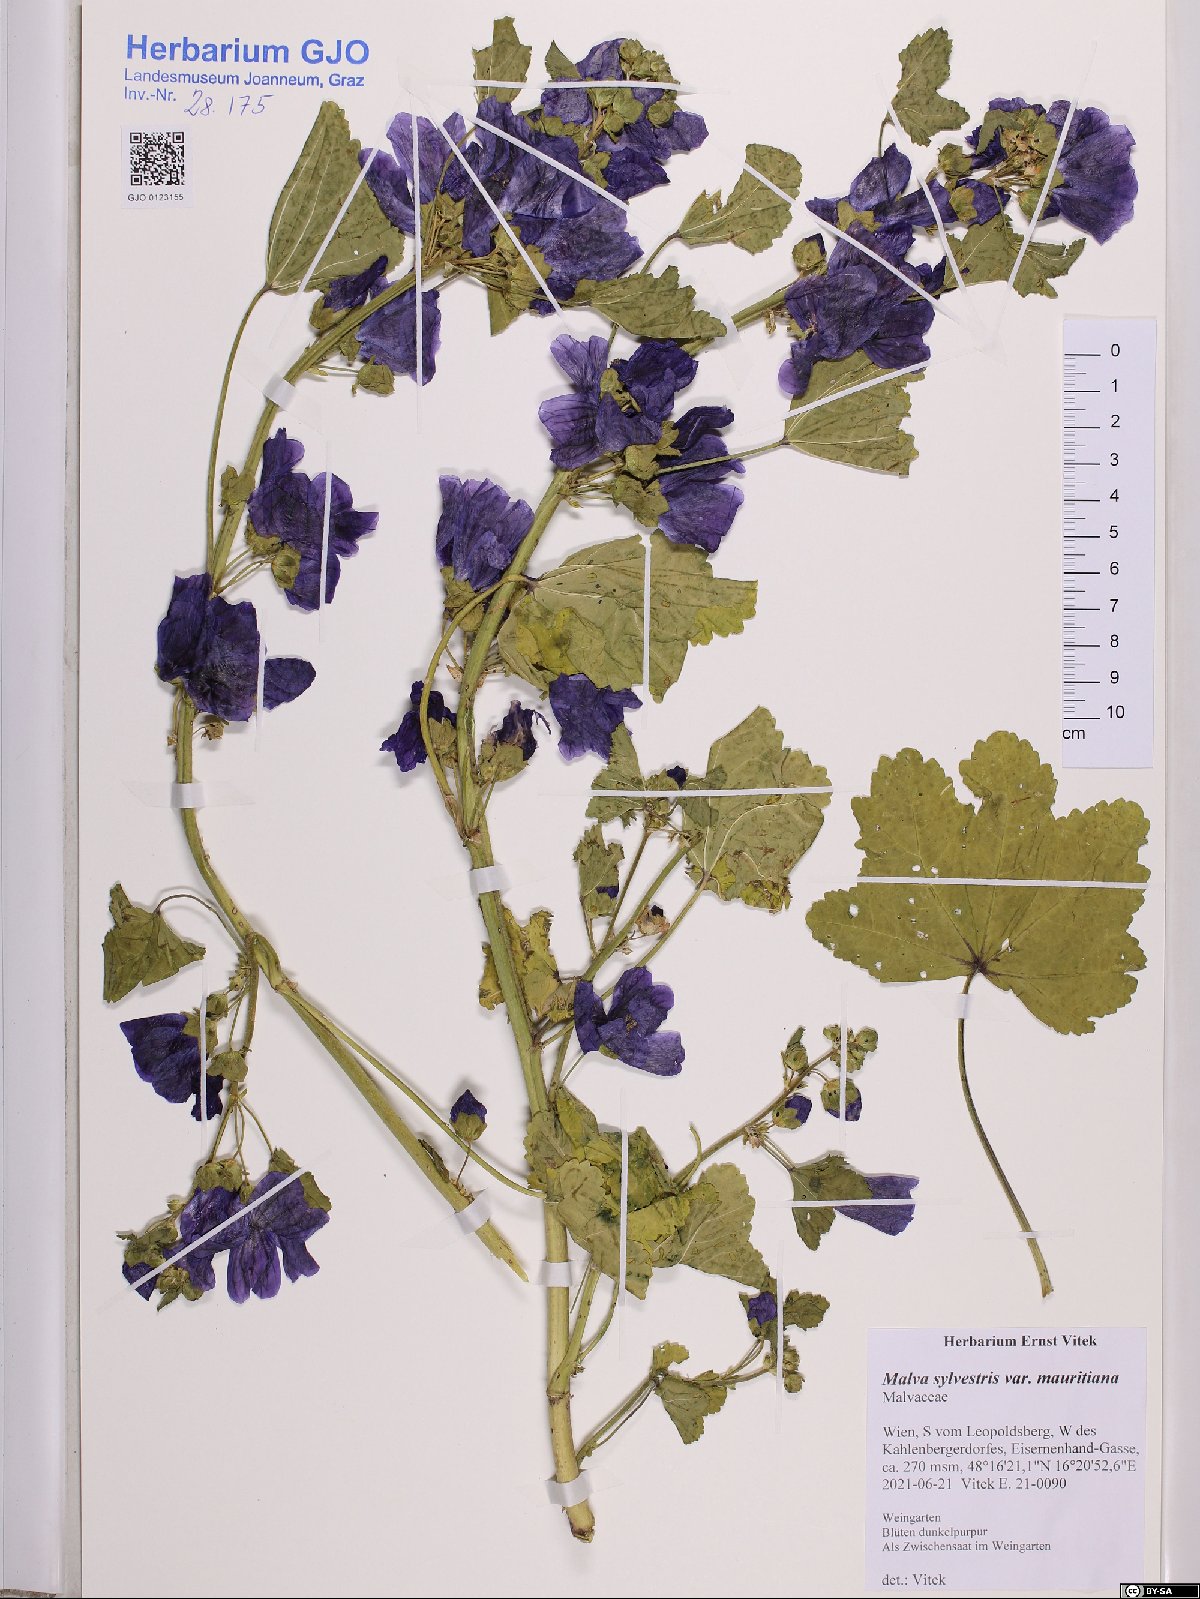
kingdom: Plantae
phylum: Tracheophyta
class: Magnoliopsida
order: Malvales
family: Malvaceae
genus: Malva
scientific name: Malva sylvestris
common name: Common mallow
